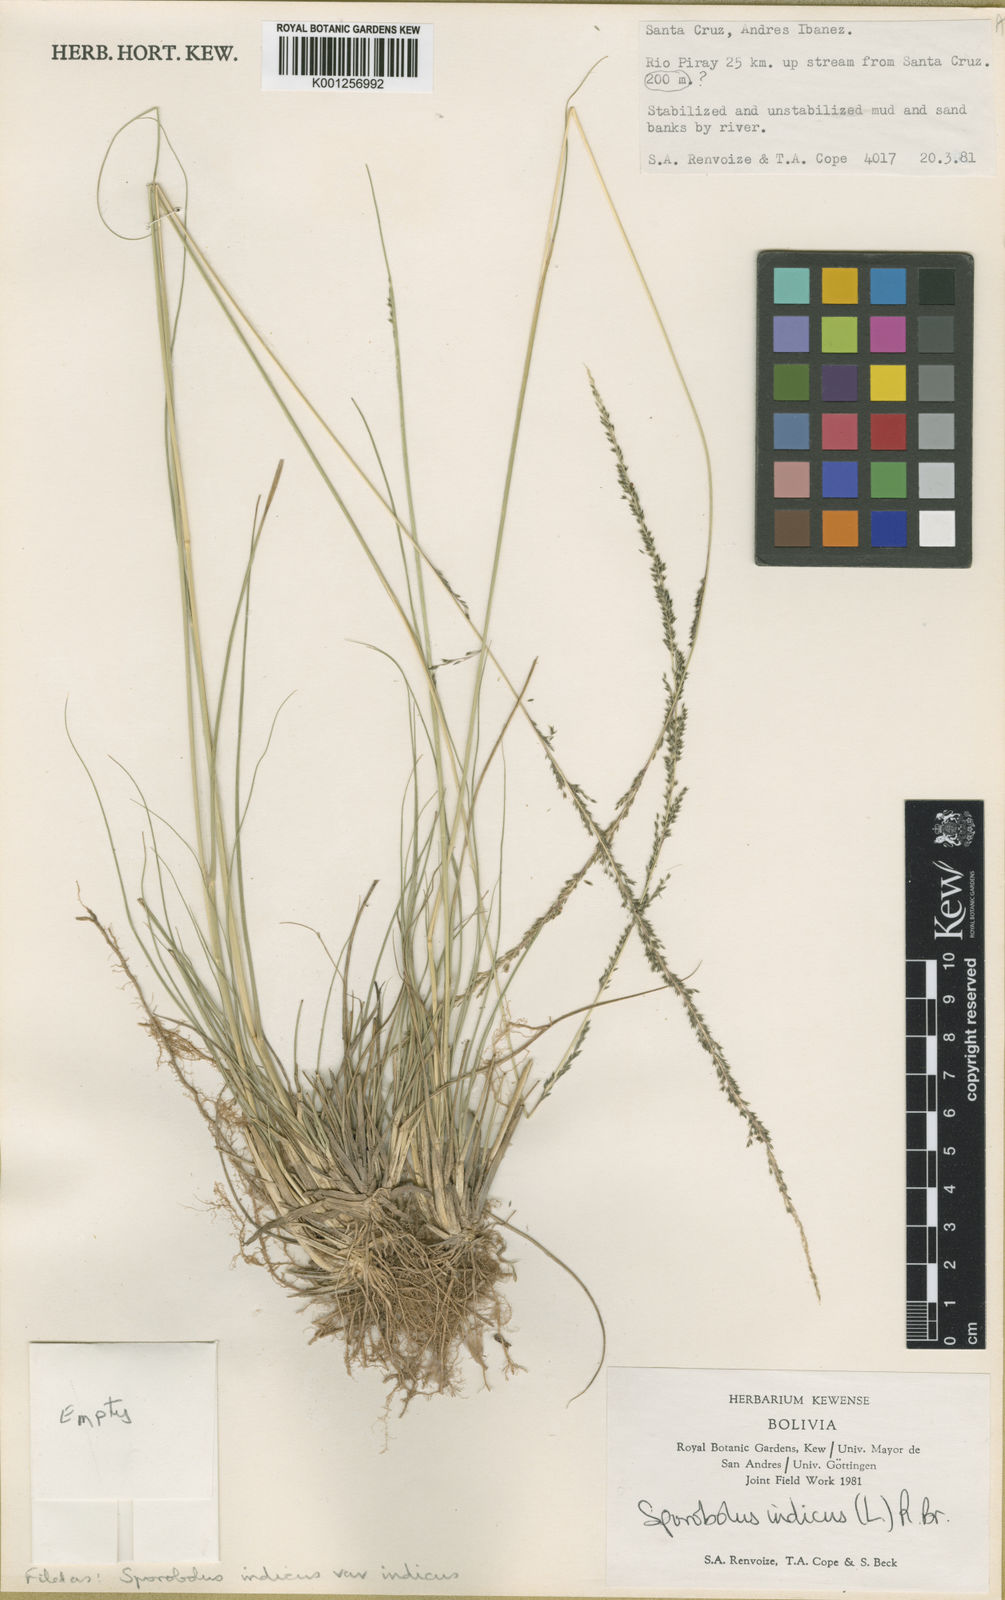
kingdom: Plantae
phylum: Tracheophyta
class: Liliopsida
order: Poales
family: Poaceae
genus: Sporobolus
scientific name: Sporobolus indicus
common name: Smut grass
